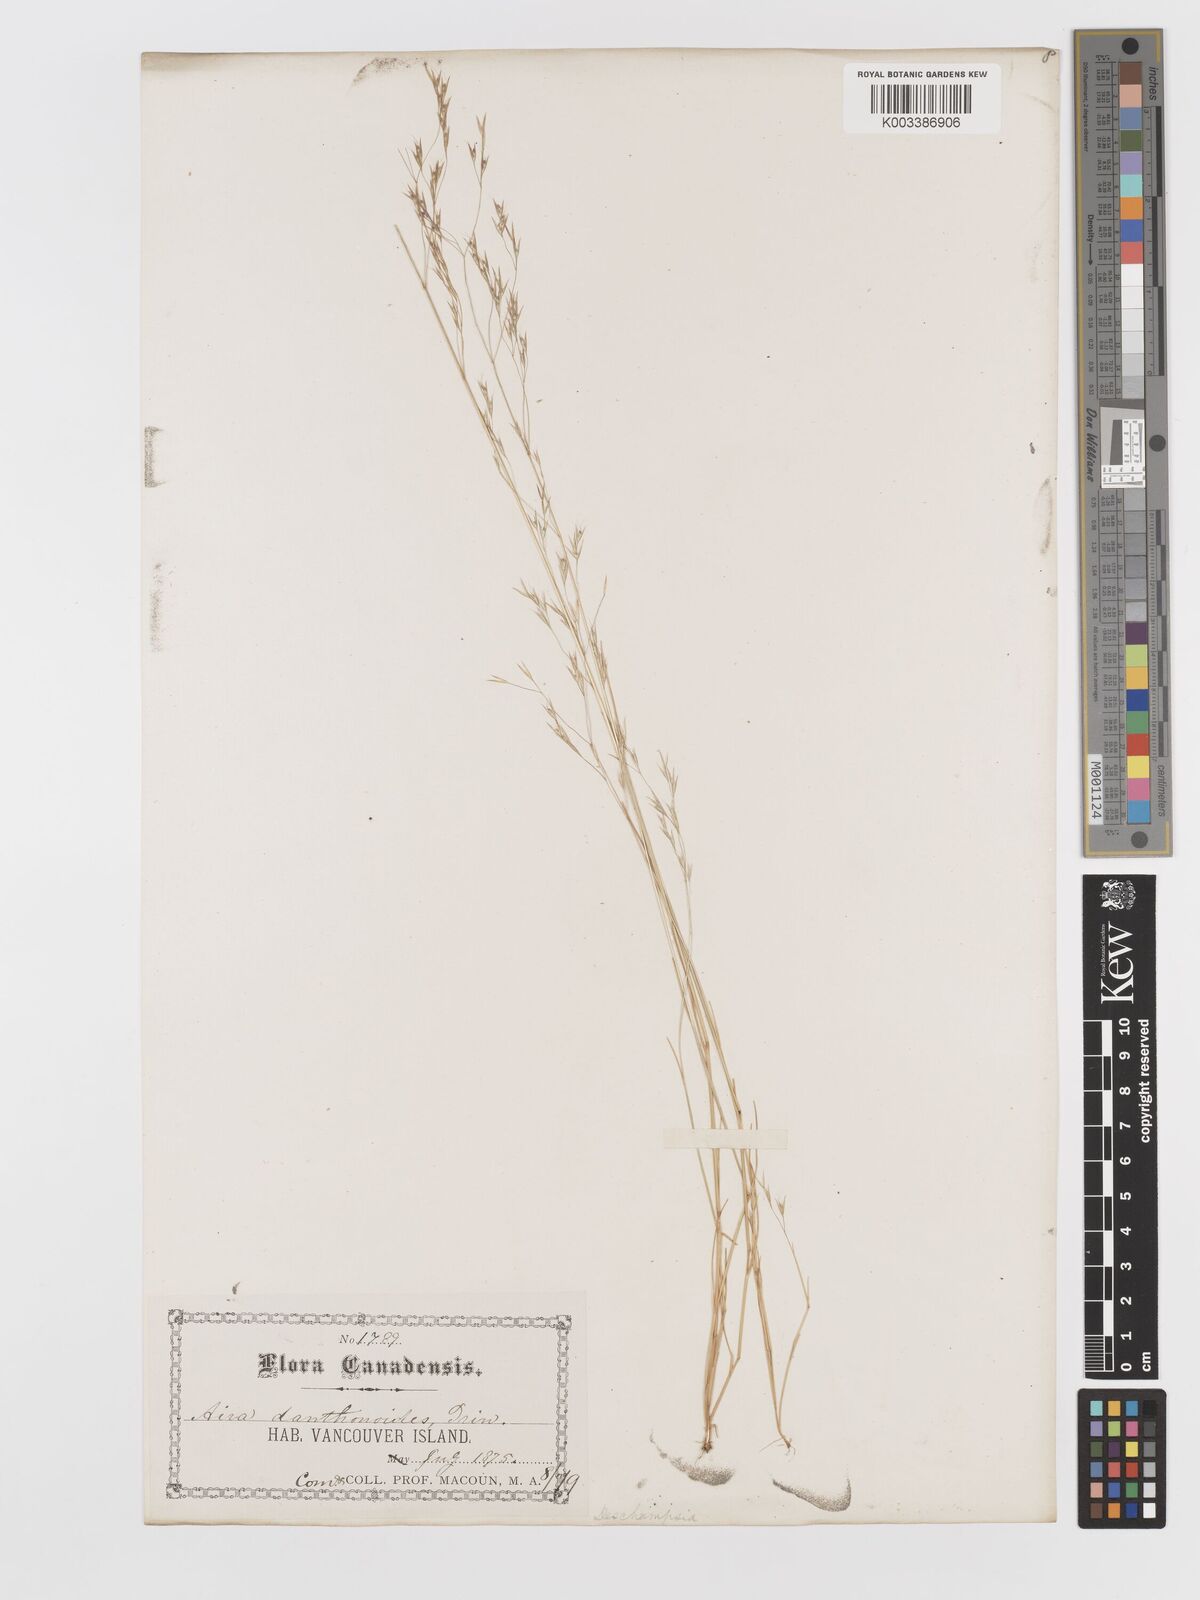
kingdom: Plantae
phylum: Tracheophyta
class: Liliopsida
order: Poales
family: Poaceae
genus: Deschampsia
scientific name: Deschampsia danthonioides
